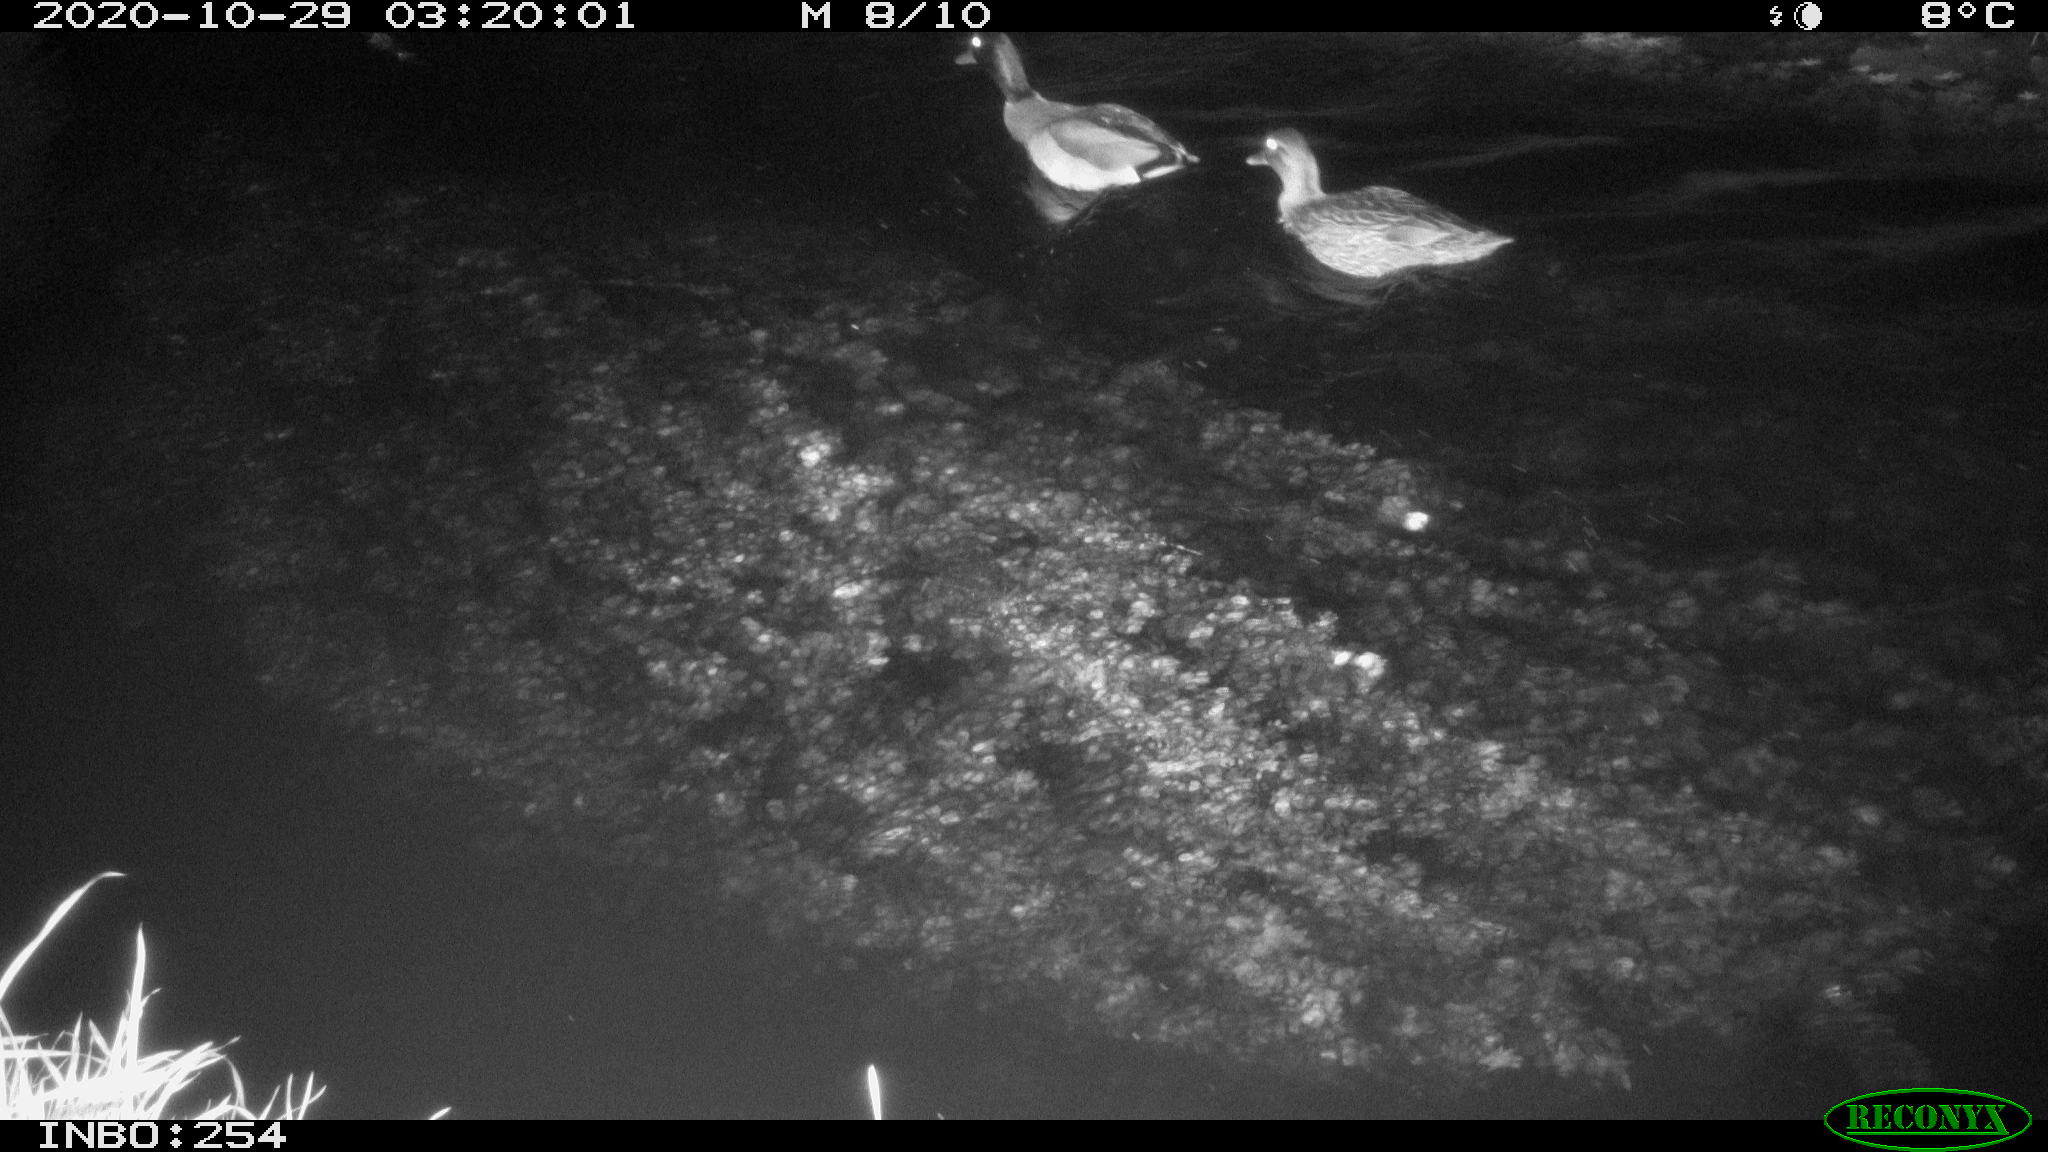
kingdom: Animalia
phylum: Chordata
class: Aves
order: Anseriformes
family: Anatidae
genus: Anas
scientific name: Anas platyrhynchos
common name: Mallard
